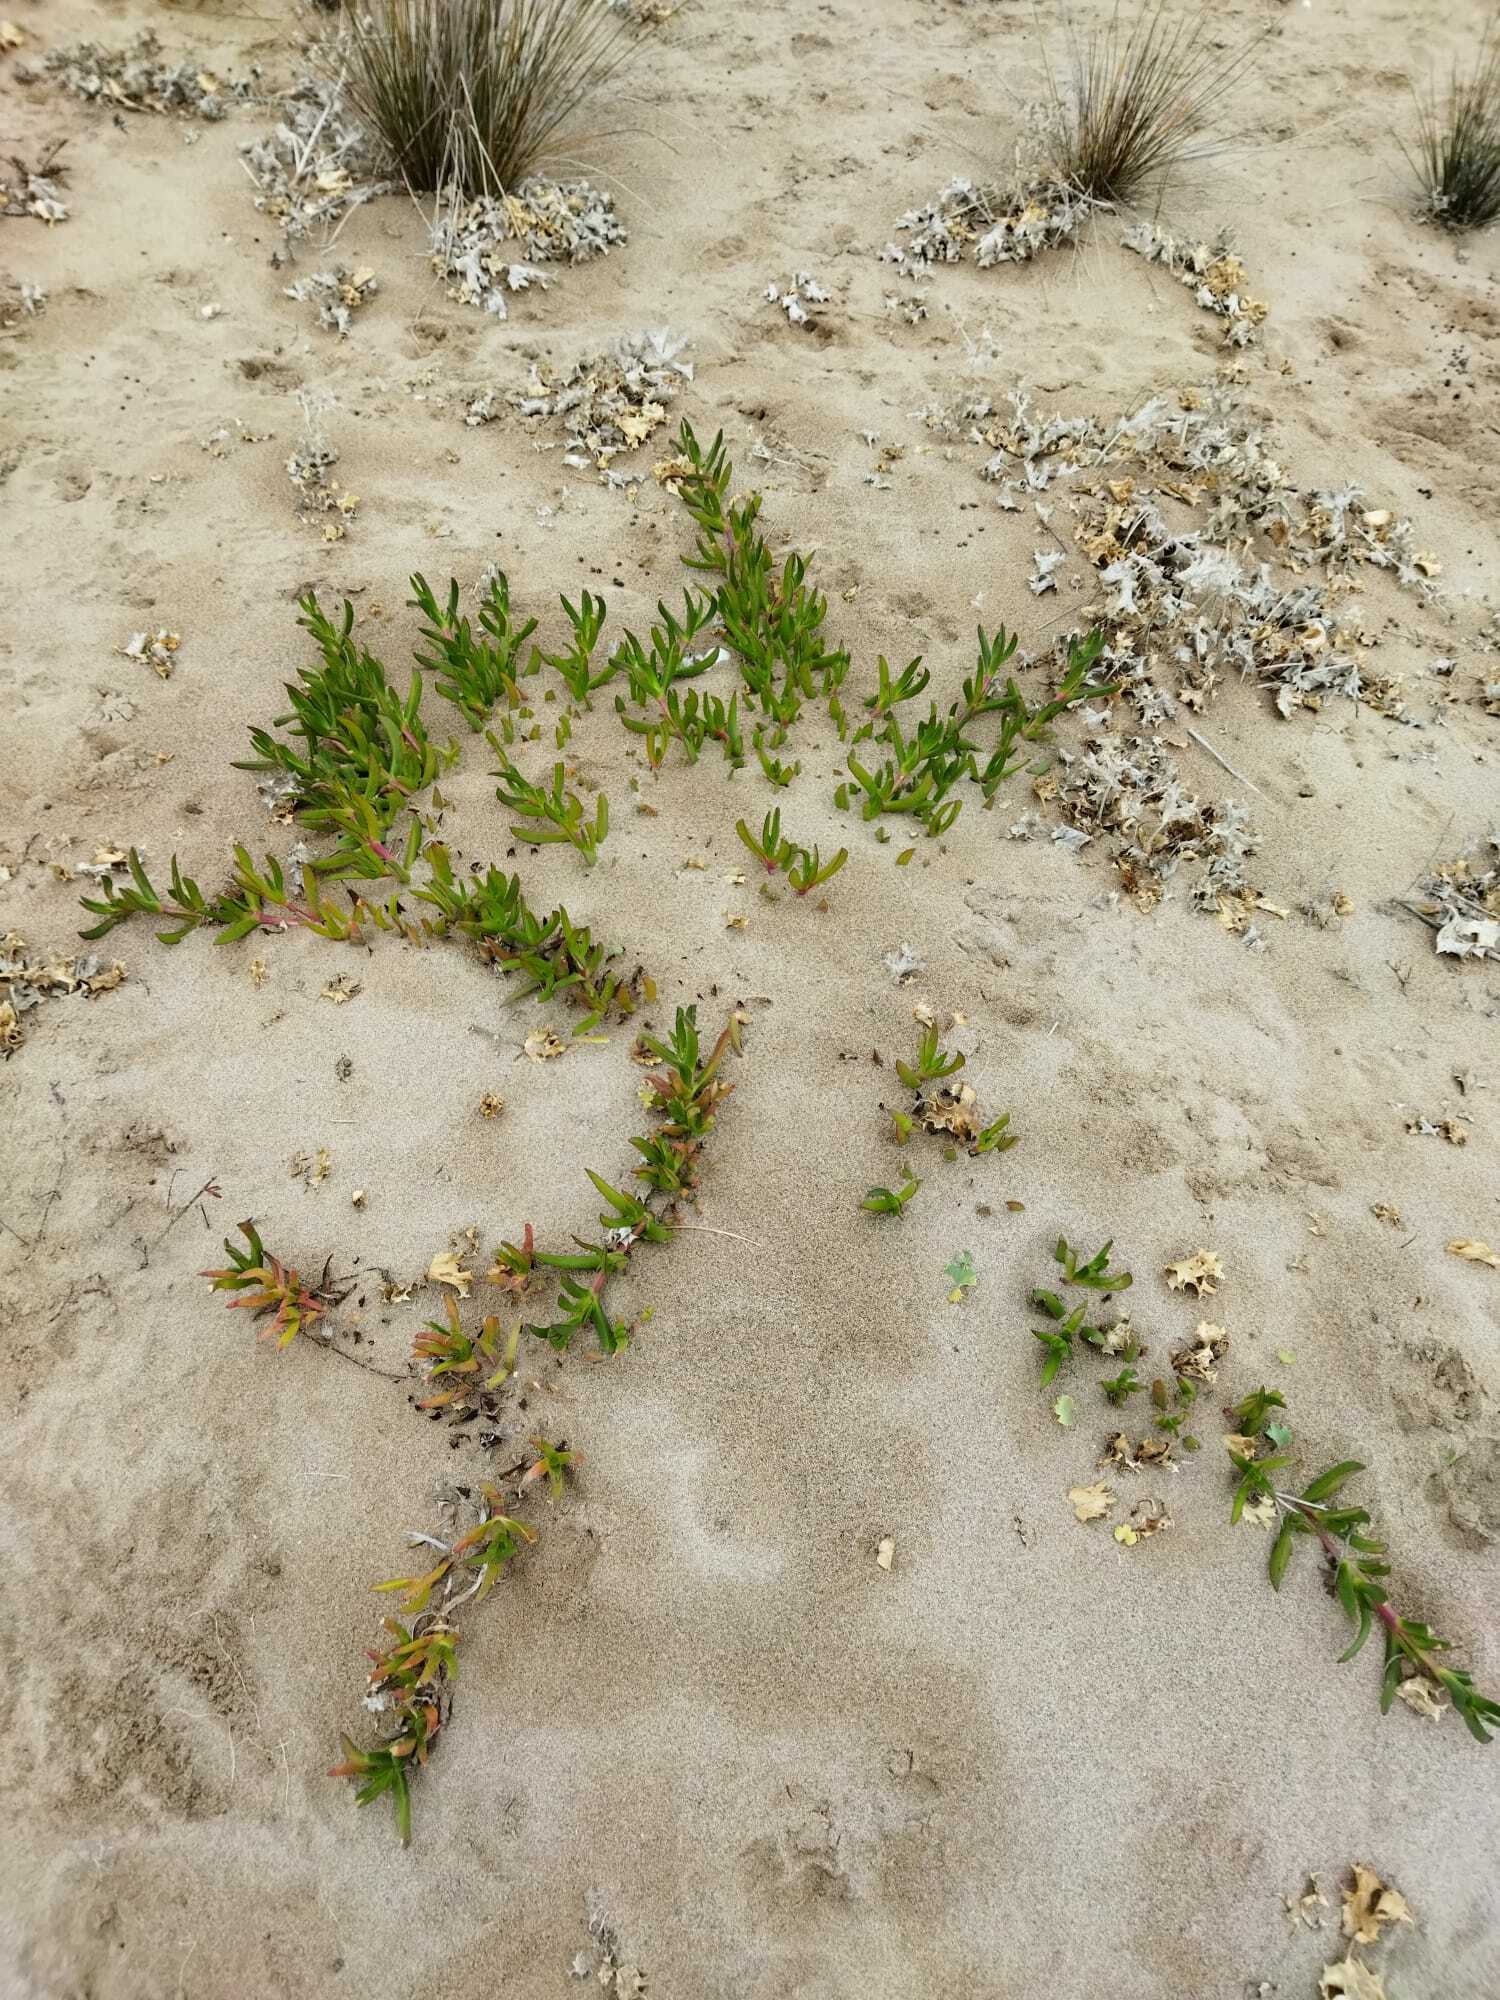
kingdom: Plantae
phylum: Tracheophyta
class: Magnoliopsida
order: Caryophyllales
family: Aizoaceae
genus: Carpobrotus
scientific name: Carpobrotus edulis
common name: Hottentot-fig
